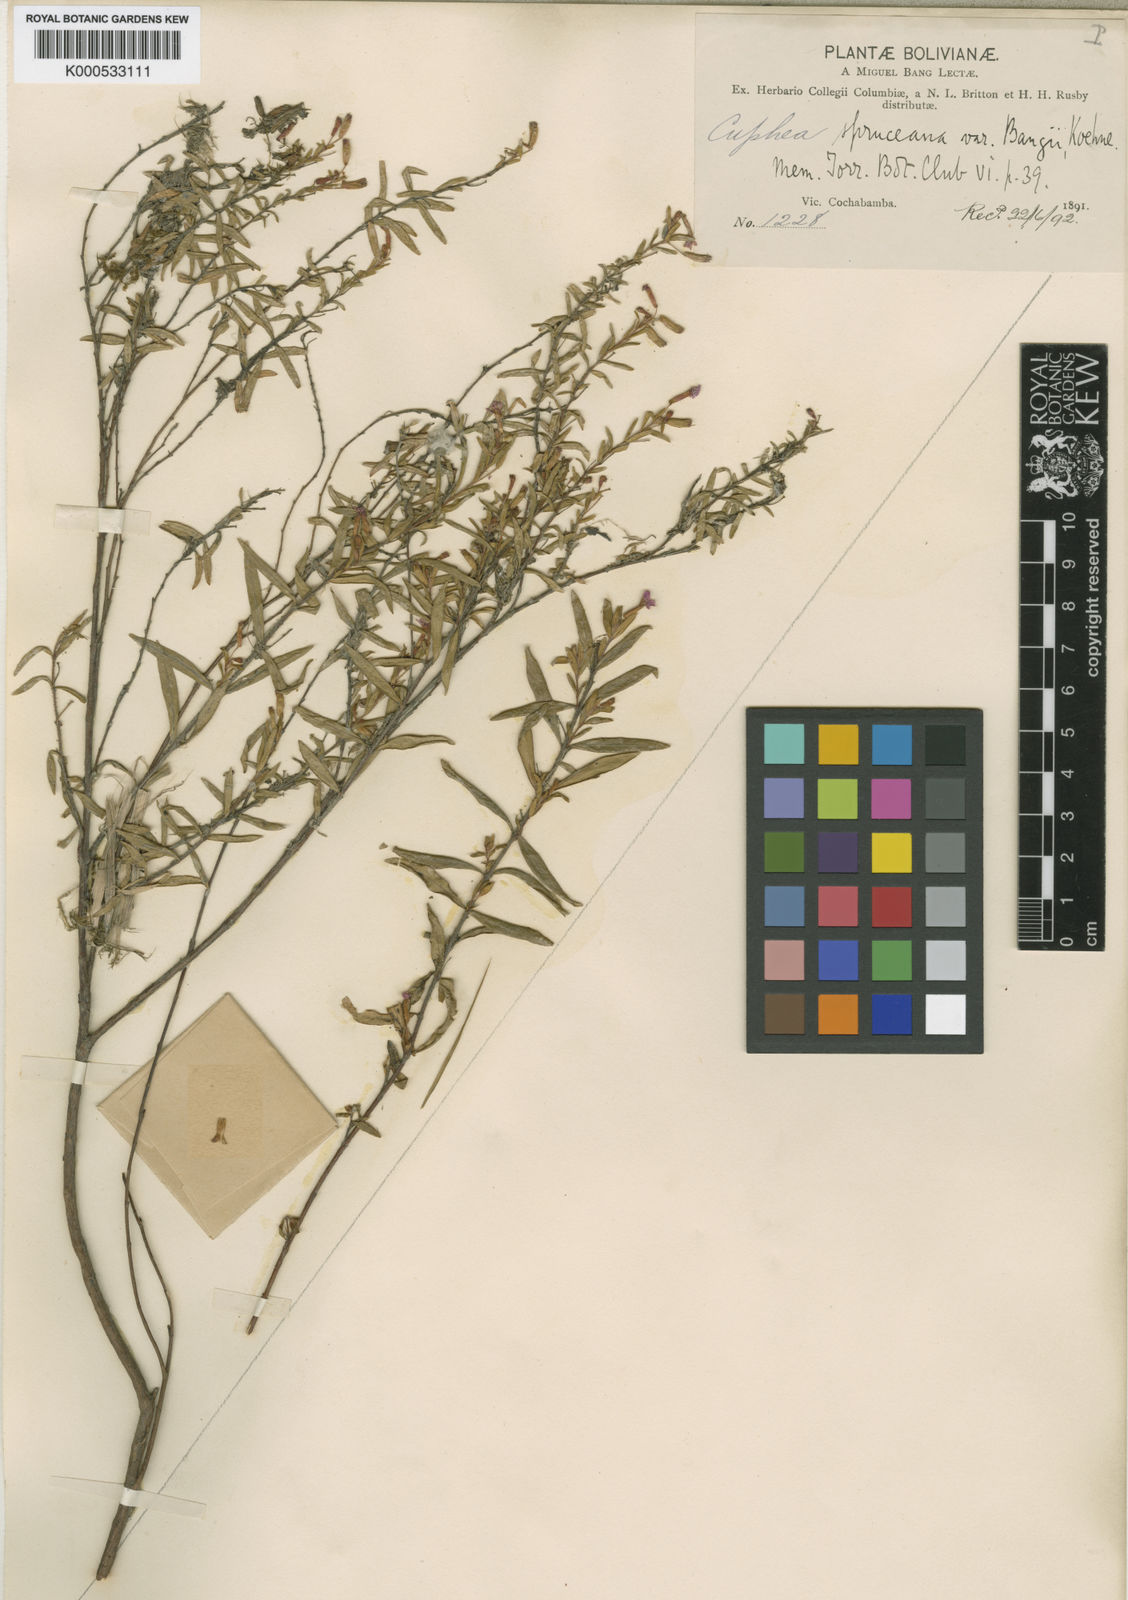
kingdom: Plantae
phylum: Tracheophyta
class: Magnoliopsida
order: Myrtales
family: Lythraceae
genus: Cuphea
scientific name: Cuphea spruceana
